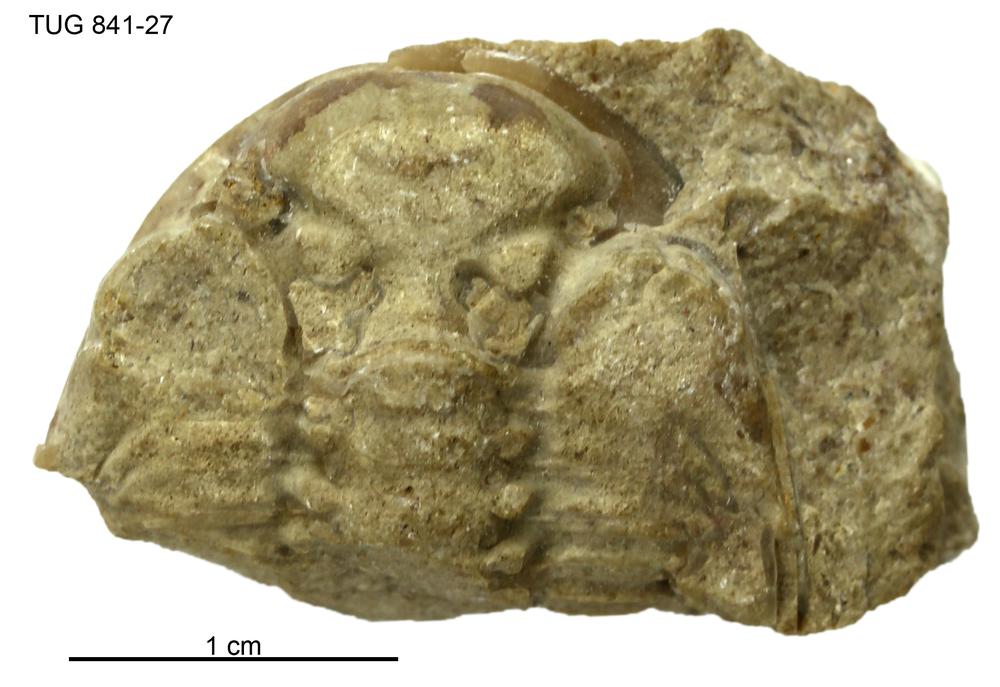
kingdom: Animalia
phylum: Arthropoda
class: Trilobita
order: Phacopida
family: Pterygometopidae
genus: Chasmops
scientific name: Chasmops
